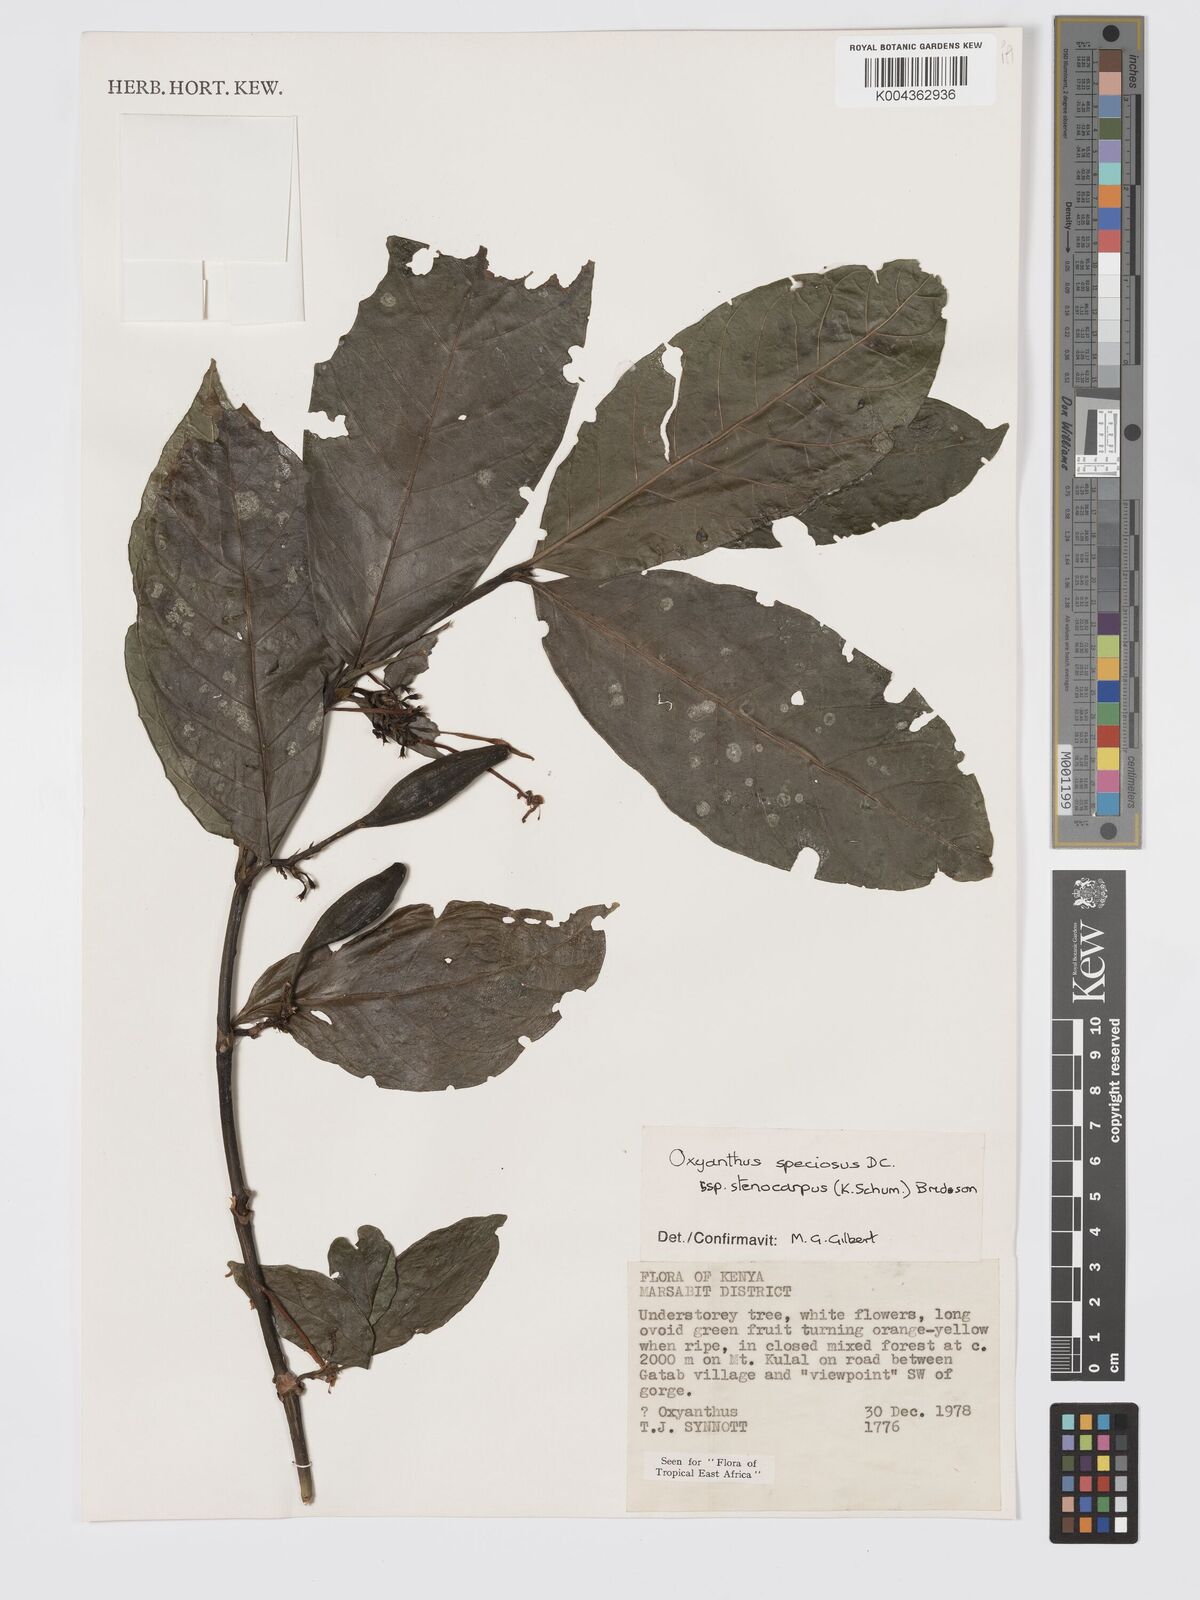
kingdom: Plantae
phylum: Tracheophyta
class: Magnoliopsida
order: Gentianales
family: Rubiaceae
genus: Oxyanthus
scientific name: Oxyanthus speciosus
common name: Whipstick loquat
